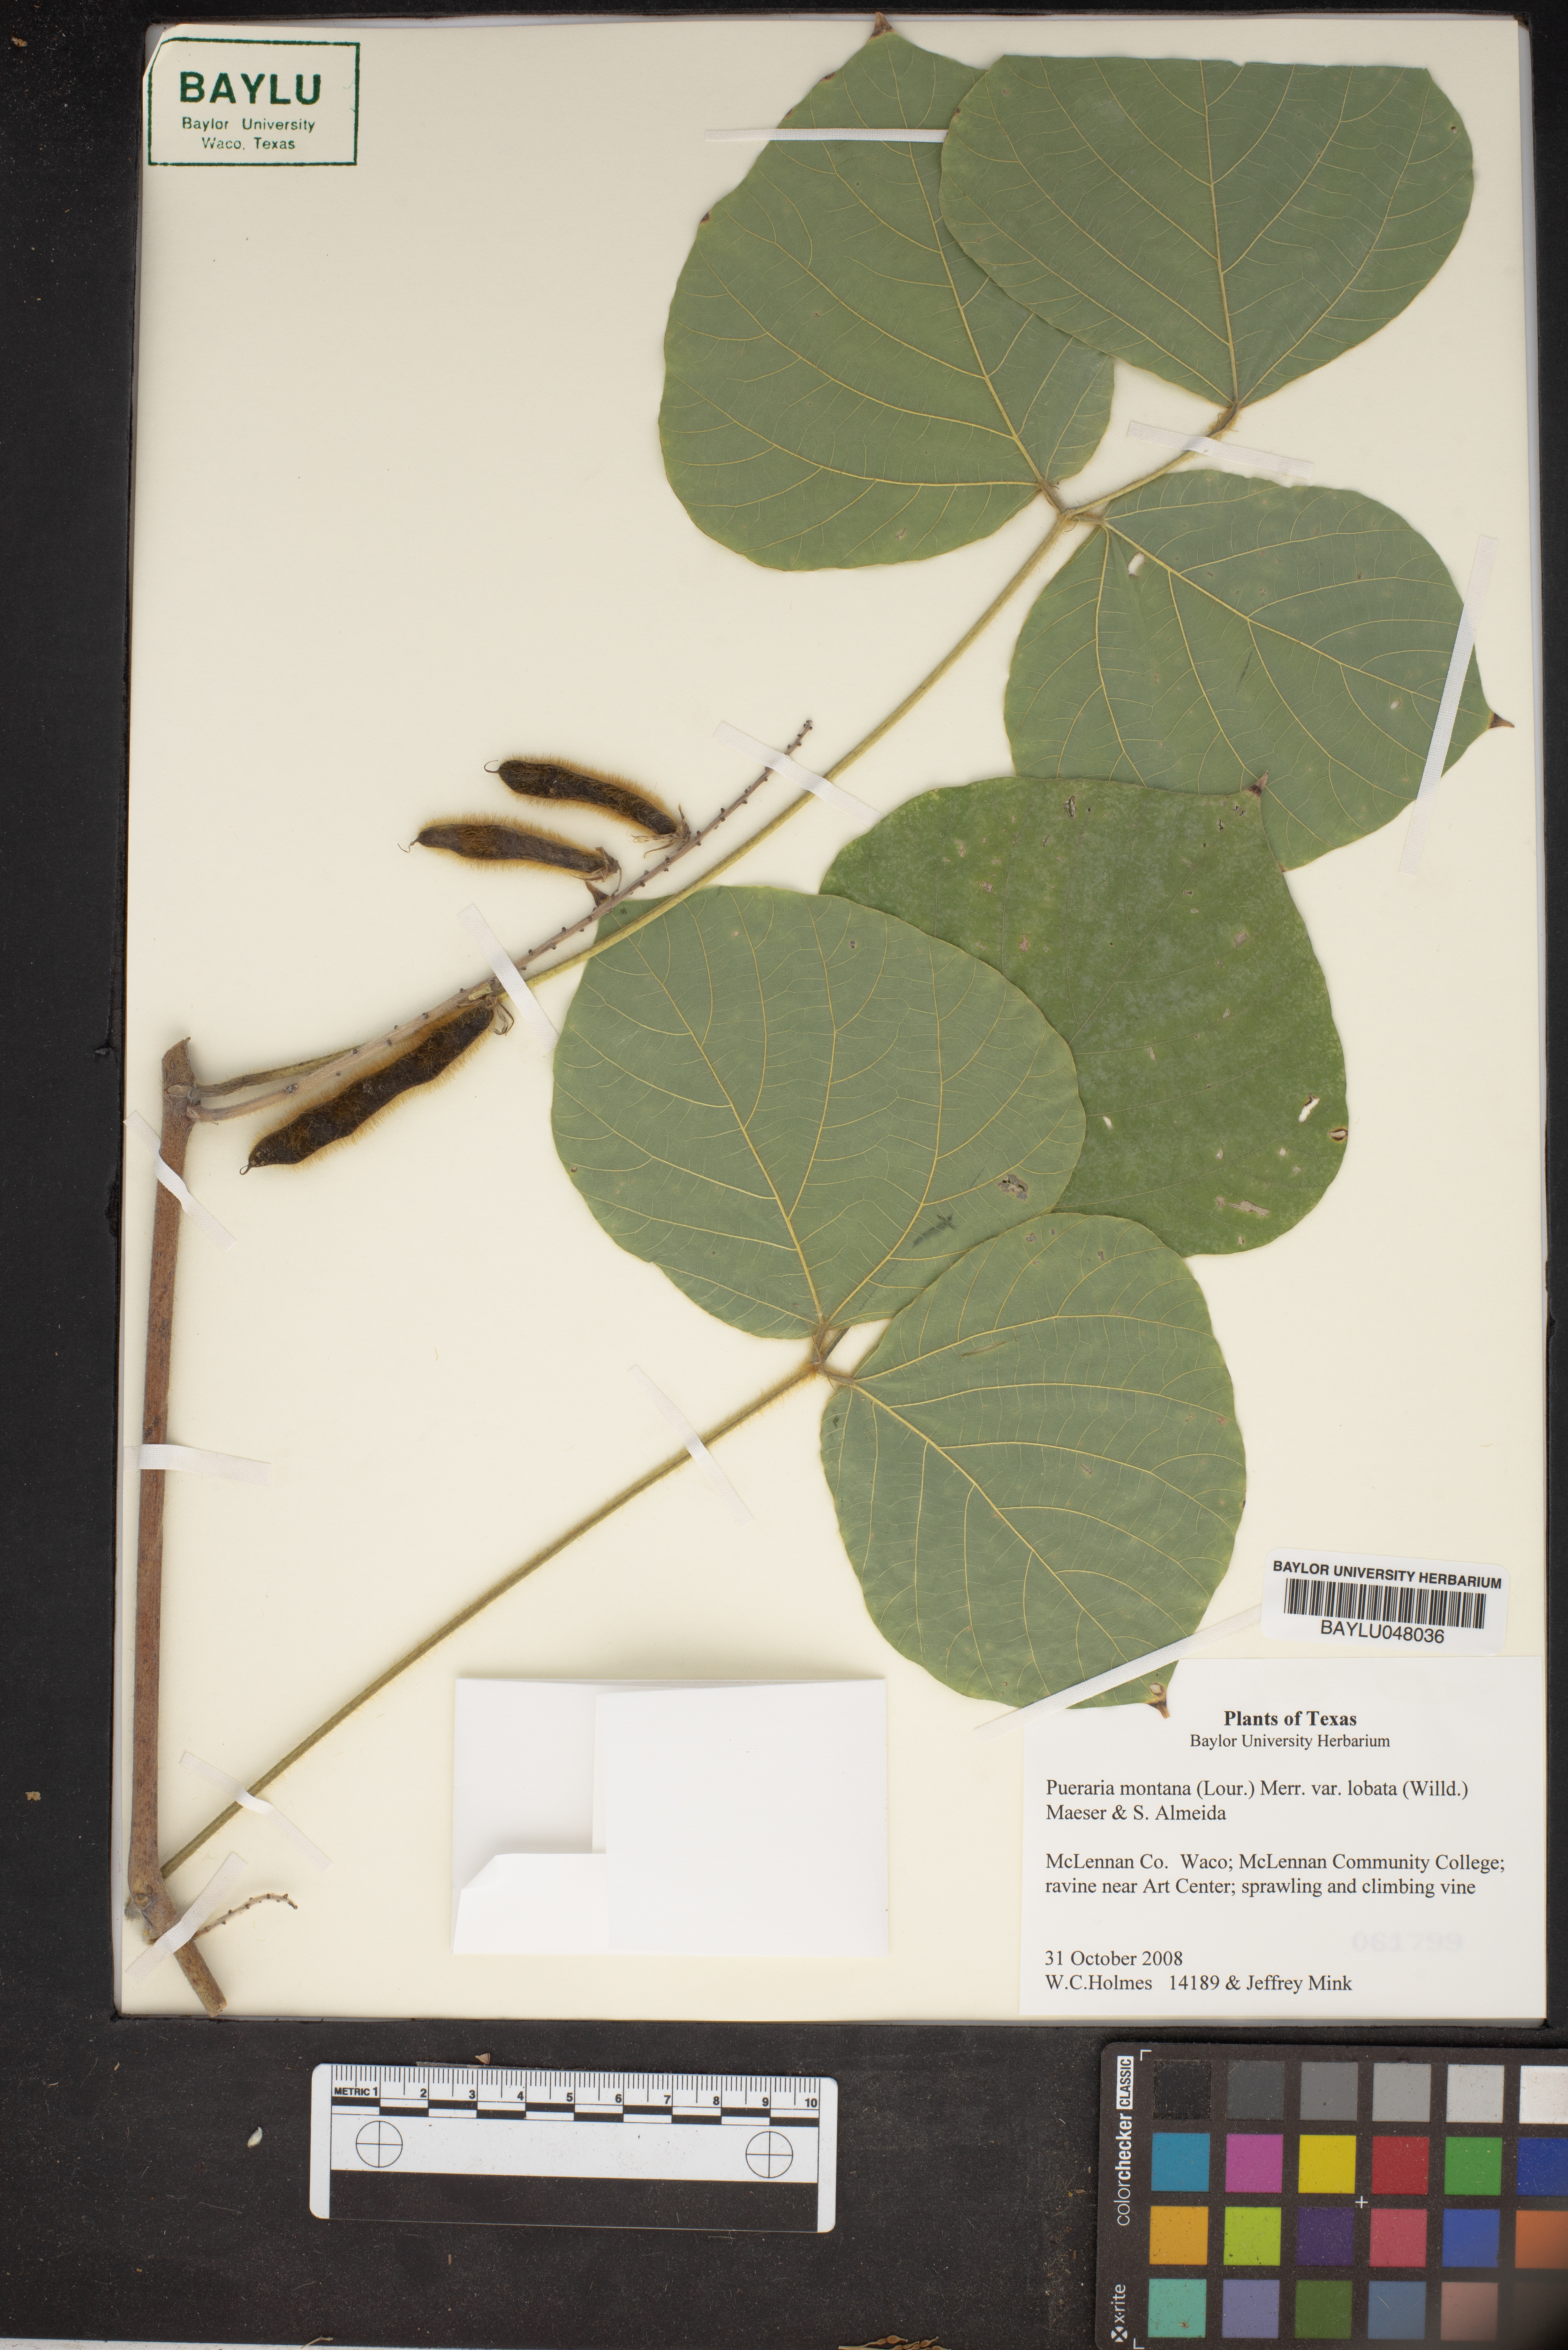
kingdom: Plantae
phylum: Tracheophyta
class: Magnoliopsida
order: Fabales
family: Fabaceae
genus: Pueraria
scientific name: Pueraria montana
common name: Kudzu
